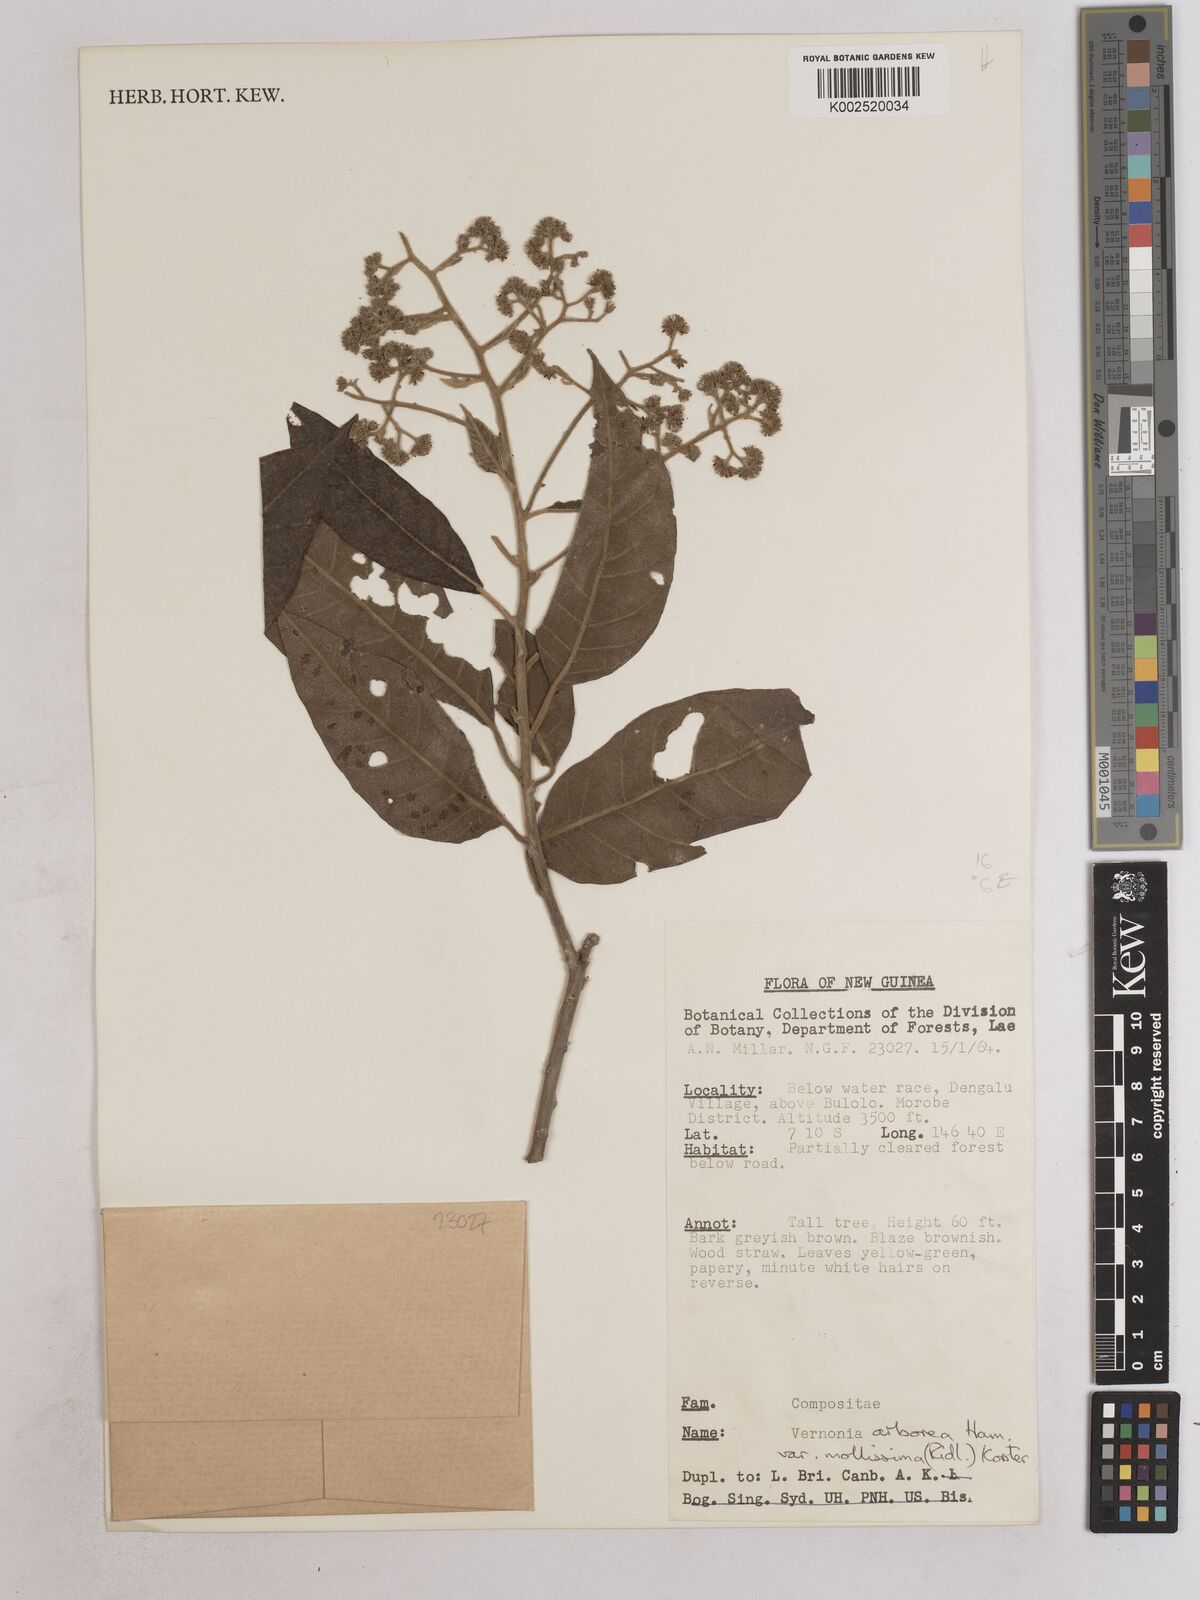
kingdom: Plantae
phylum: Tracheophyta
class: Magnoliopsida
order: Asterales
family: Asteraceae
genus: Strobocalyx
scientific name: Strobocalyx arborea
